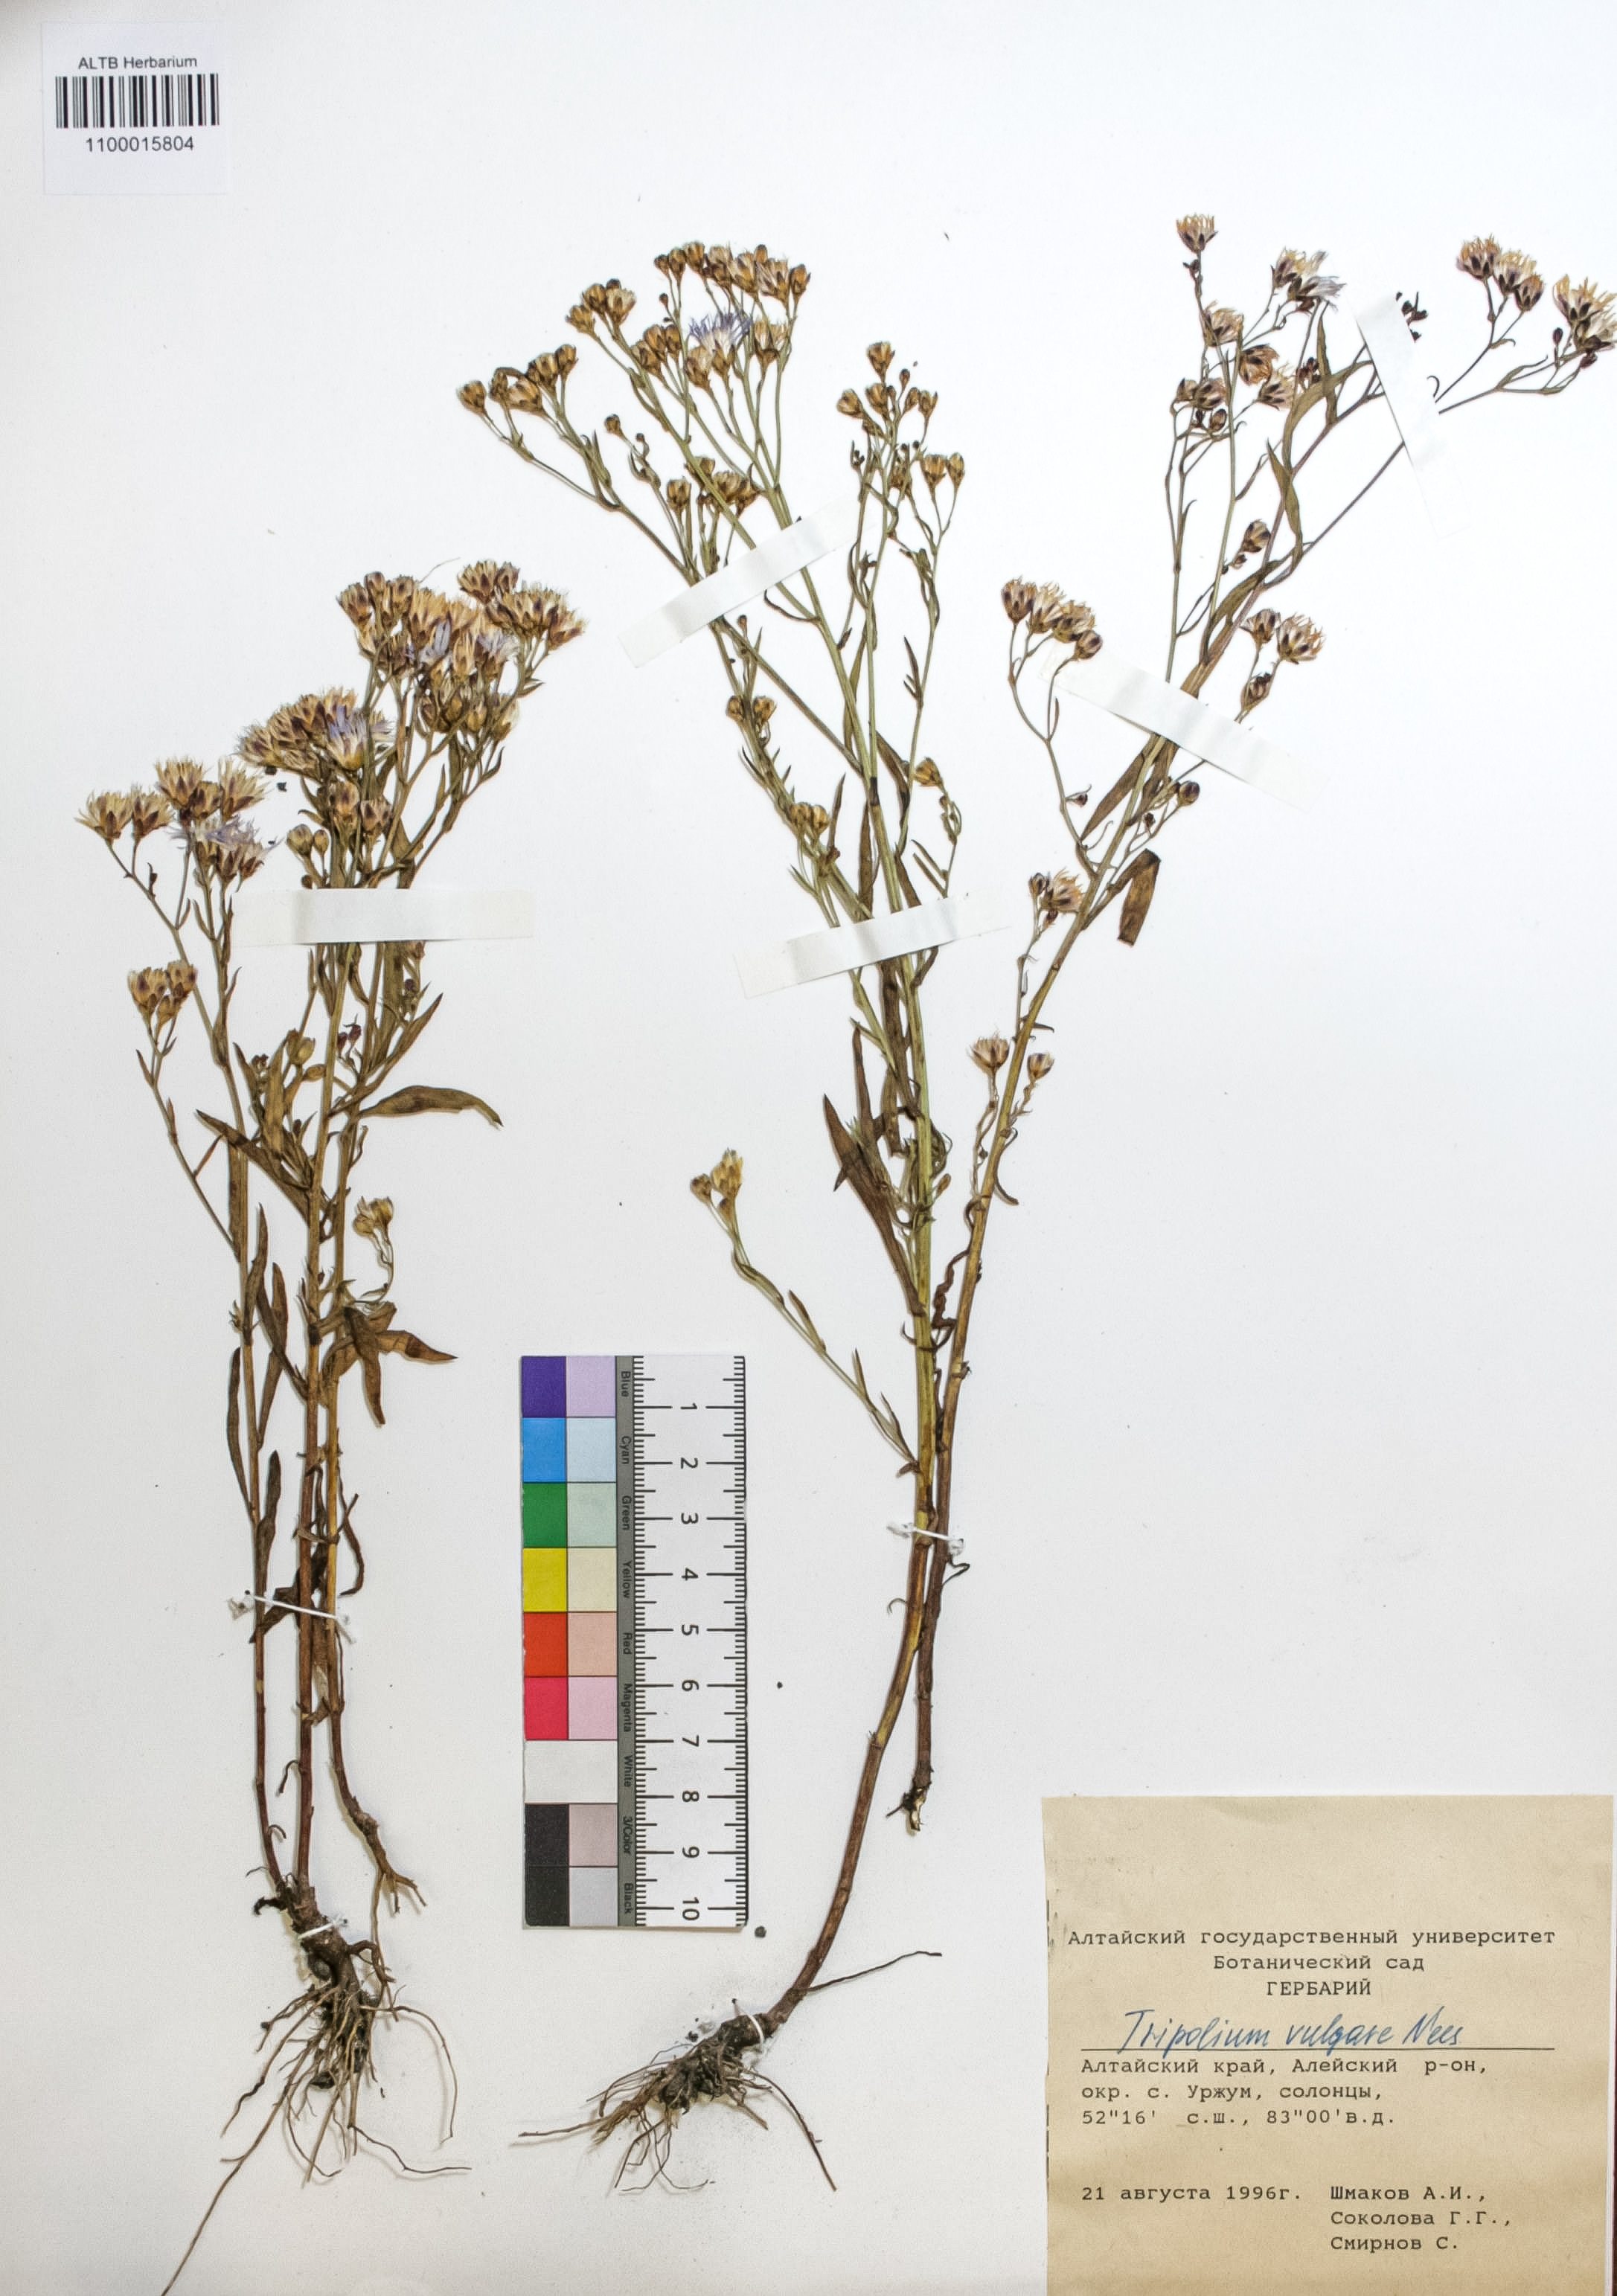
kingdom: Plantae
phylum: Tracheophyta
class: Magnoliopsida
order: Asterales
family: Asteraceae
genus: Tripolium
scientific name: Tripolium pannonicum
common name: Sea aster
